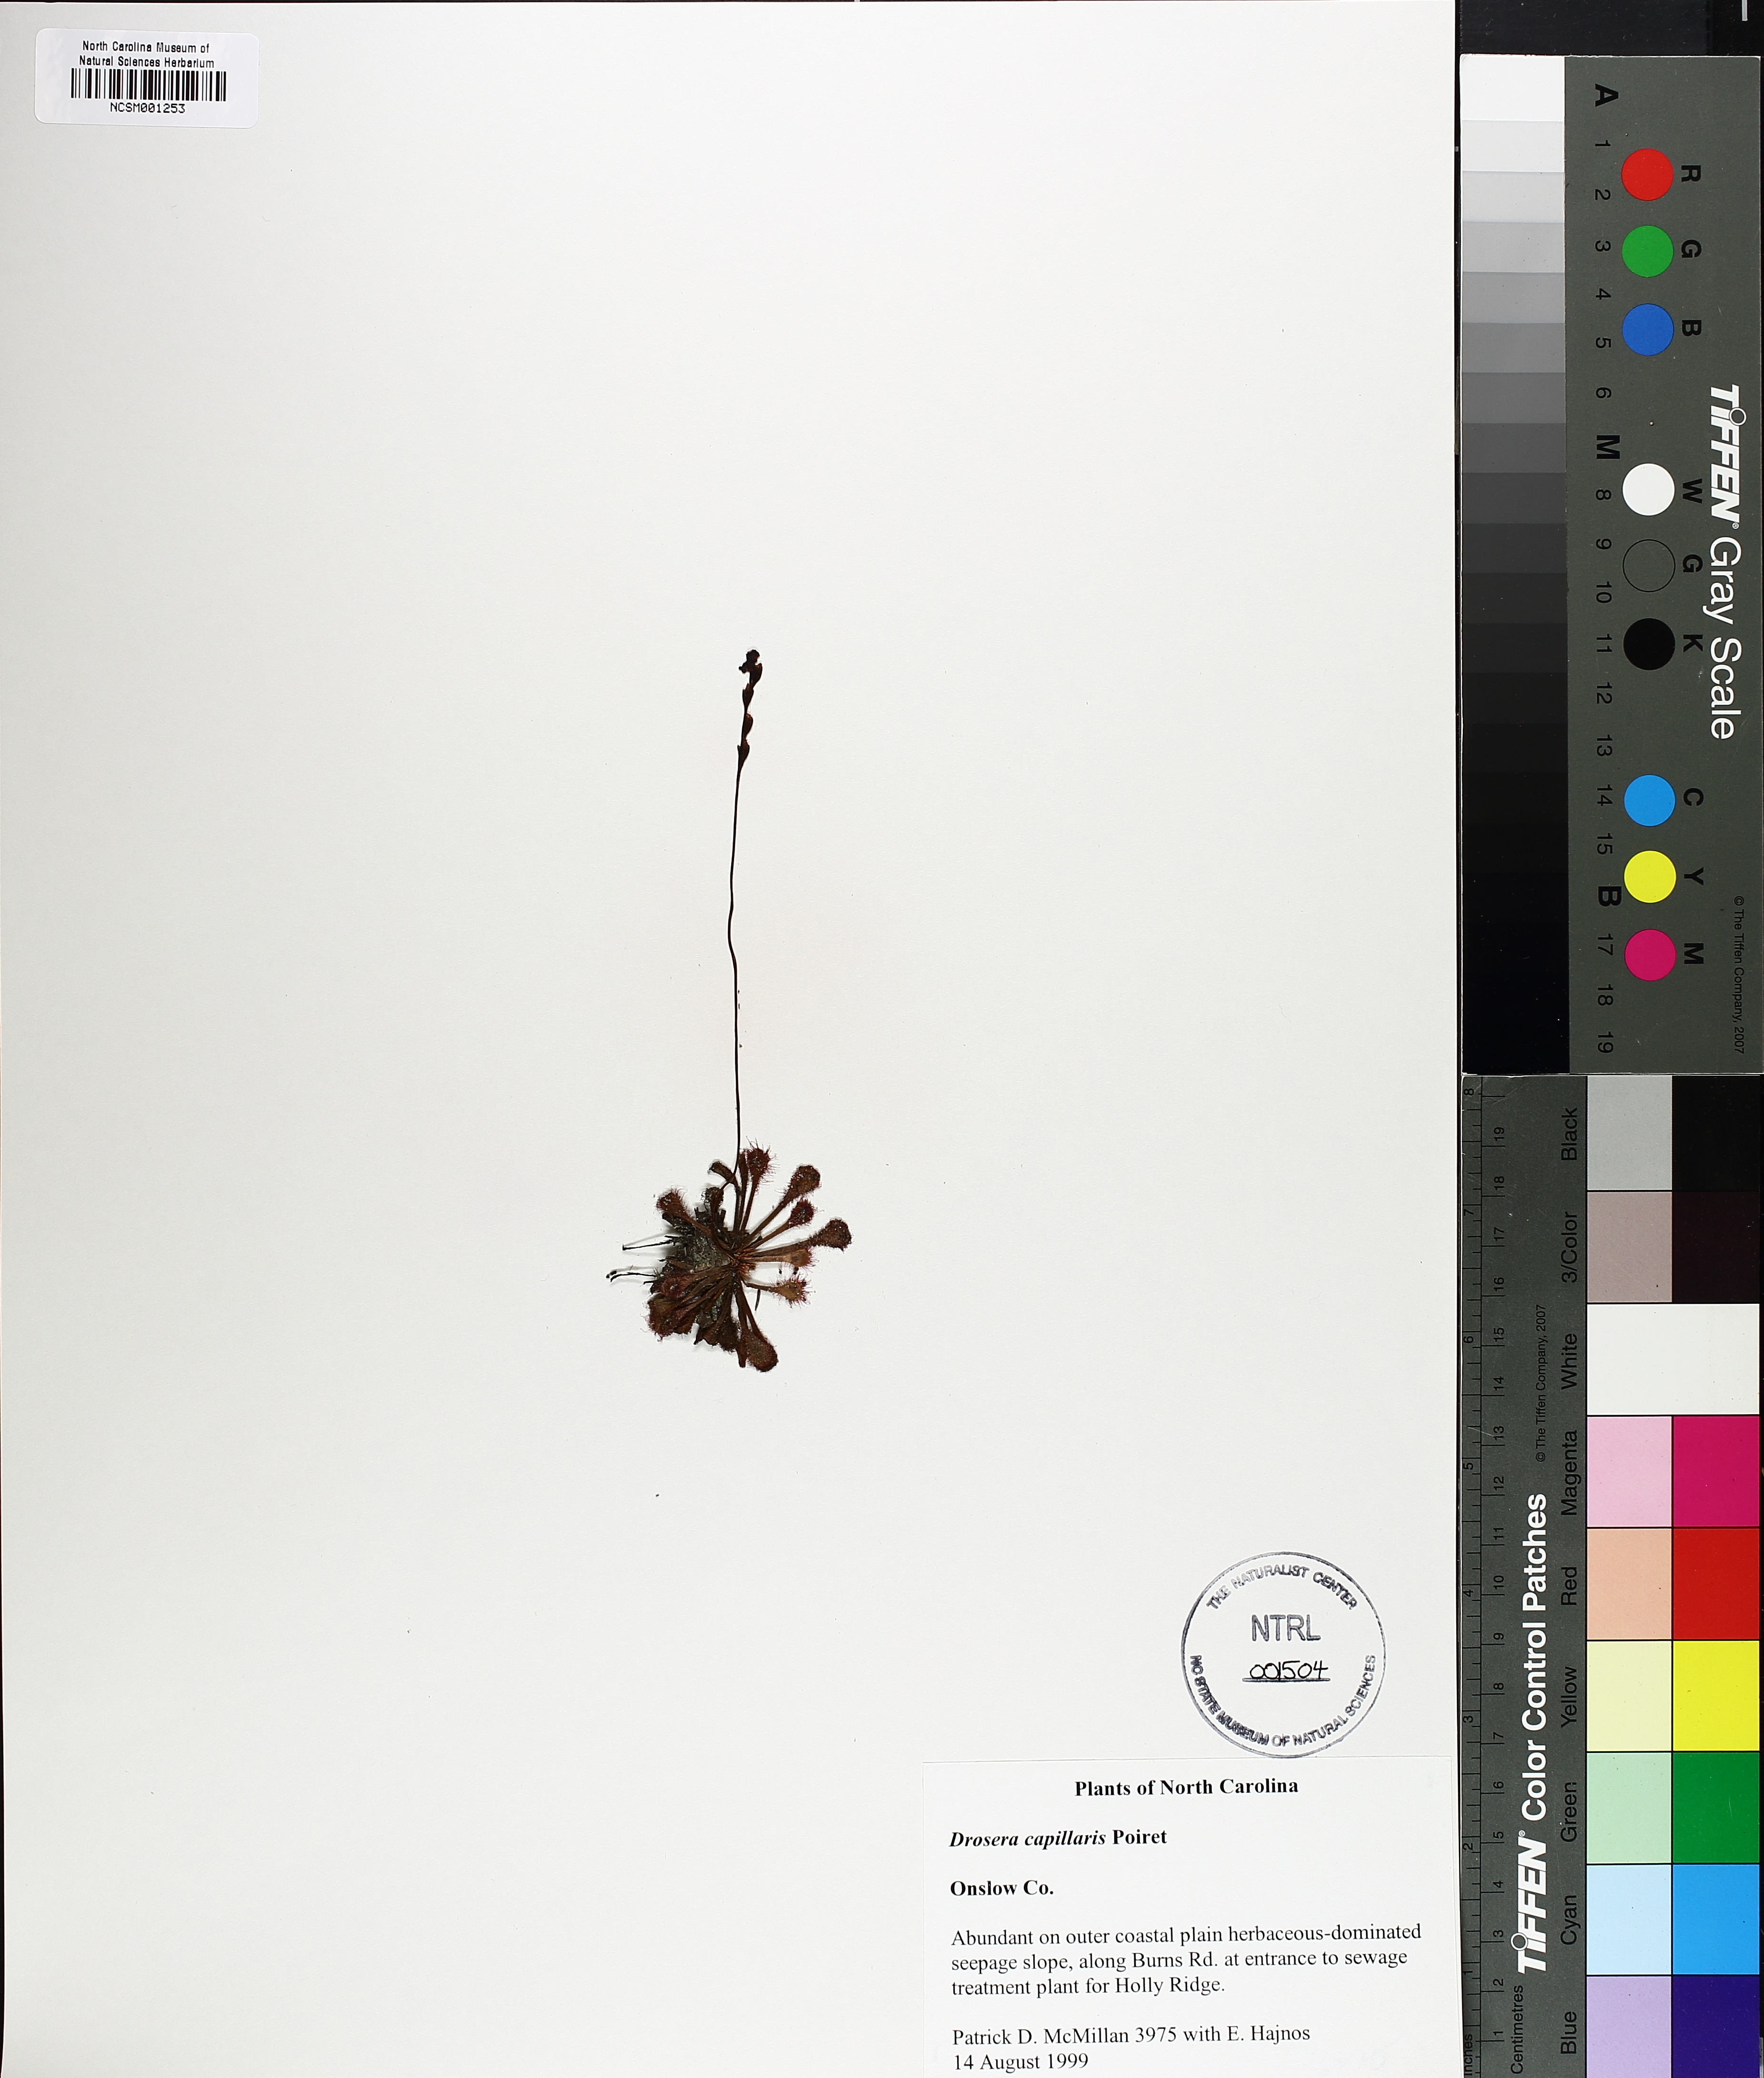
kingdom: Plantae
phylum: Tracheophyta
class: Magnoliopsida
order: Caryophyllales
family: Droseraceae
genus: Drosera
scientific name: Drosera capillaris
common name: Pink sundew
